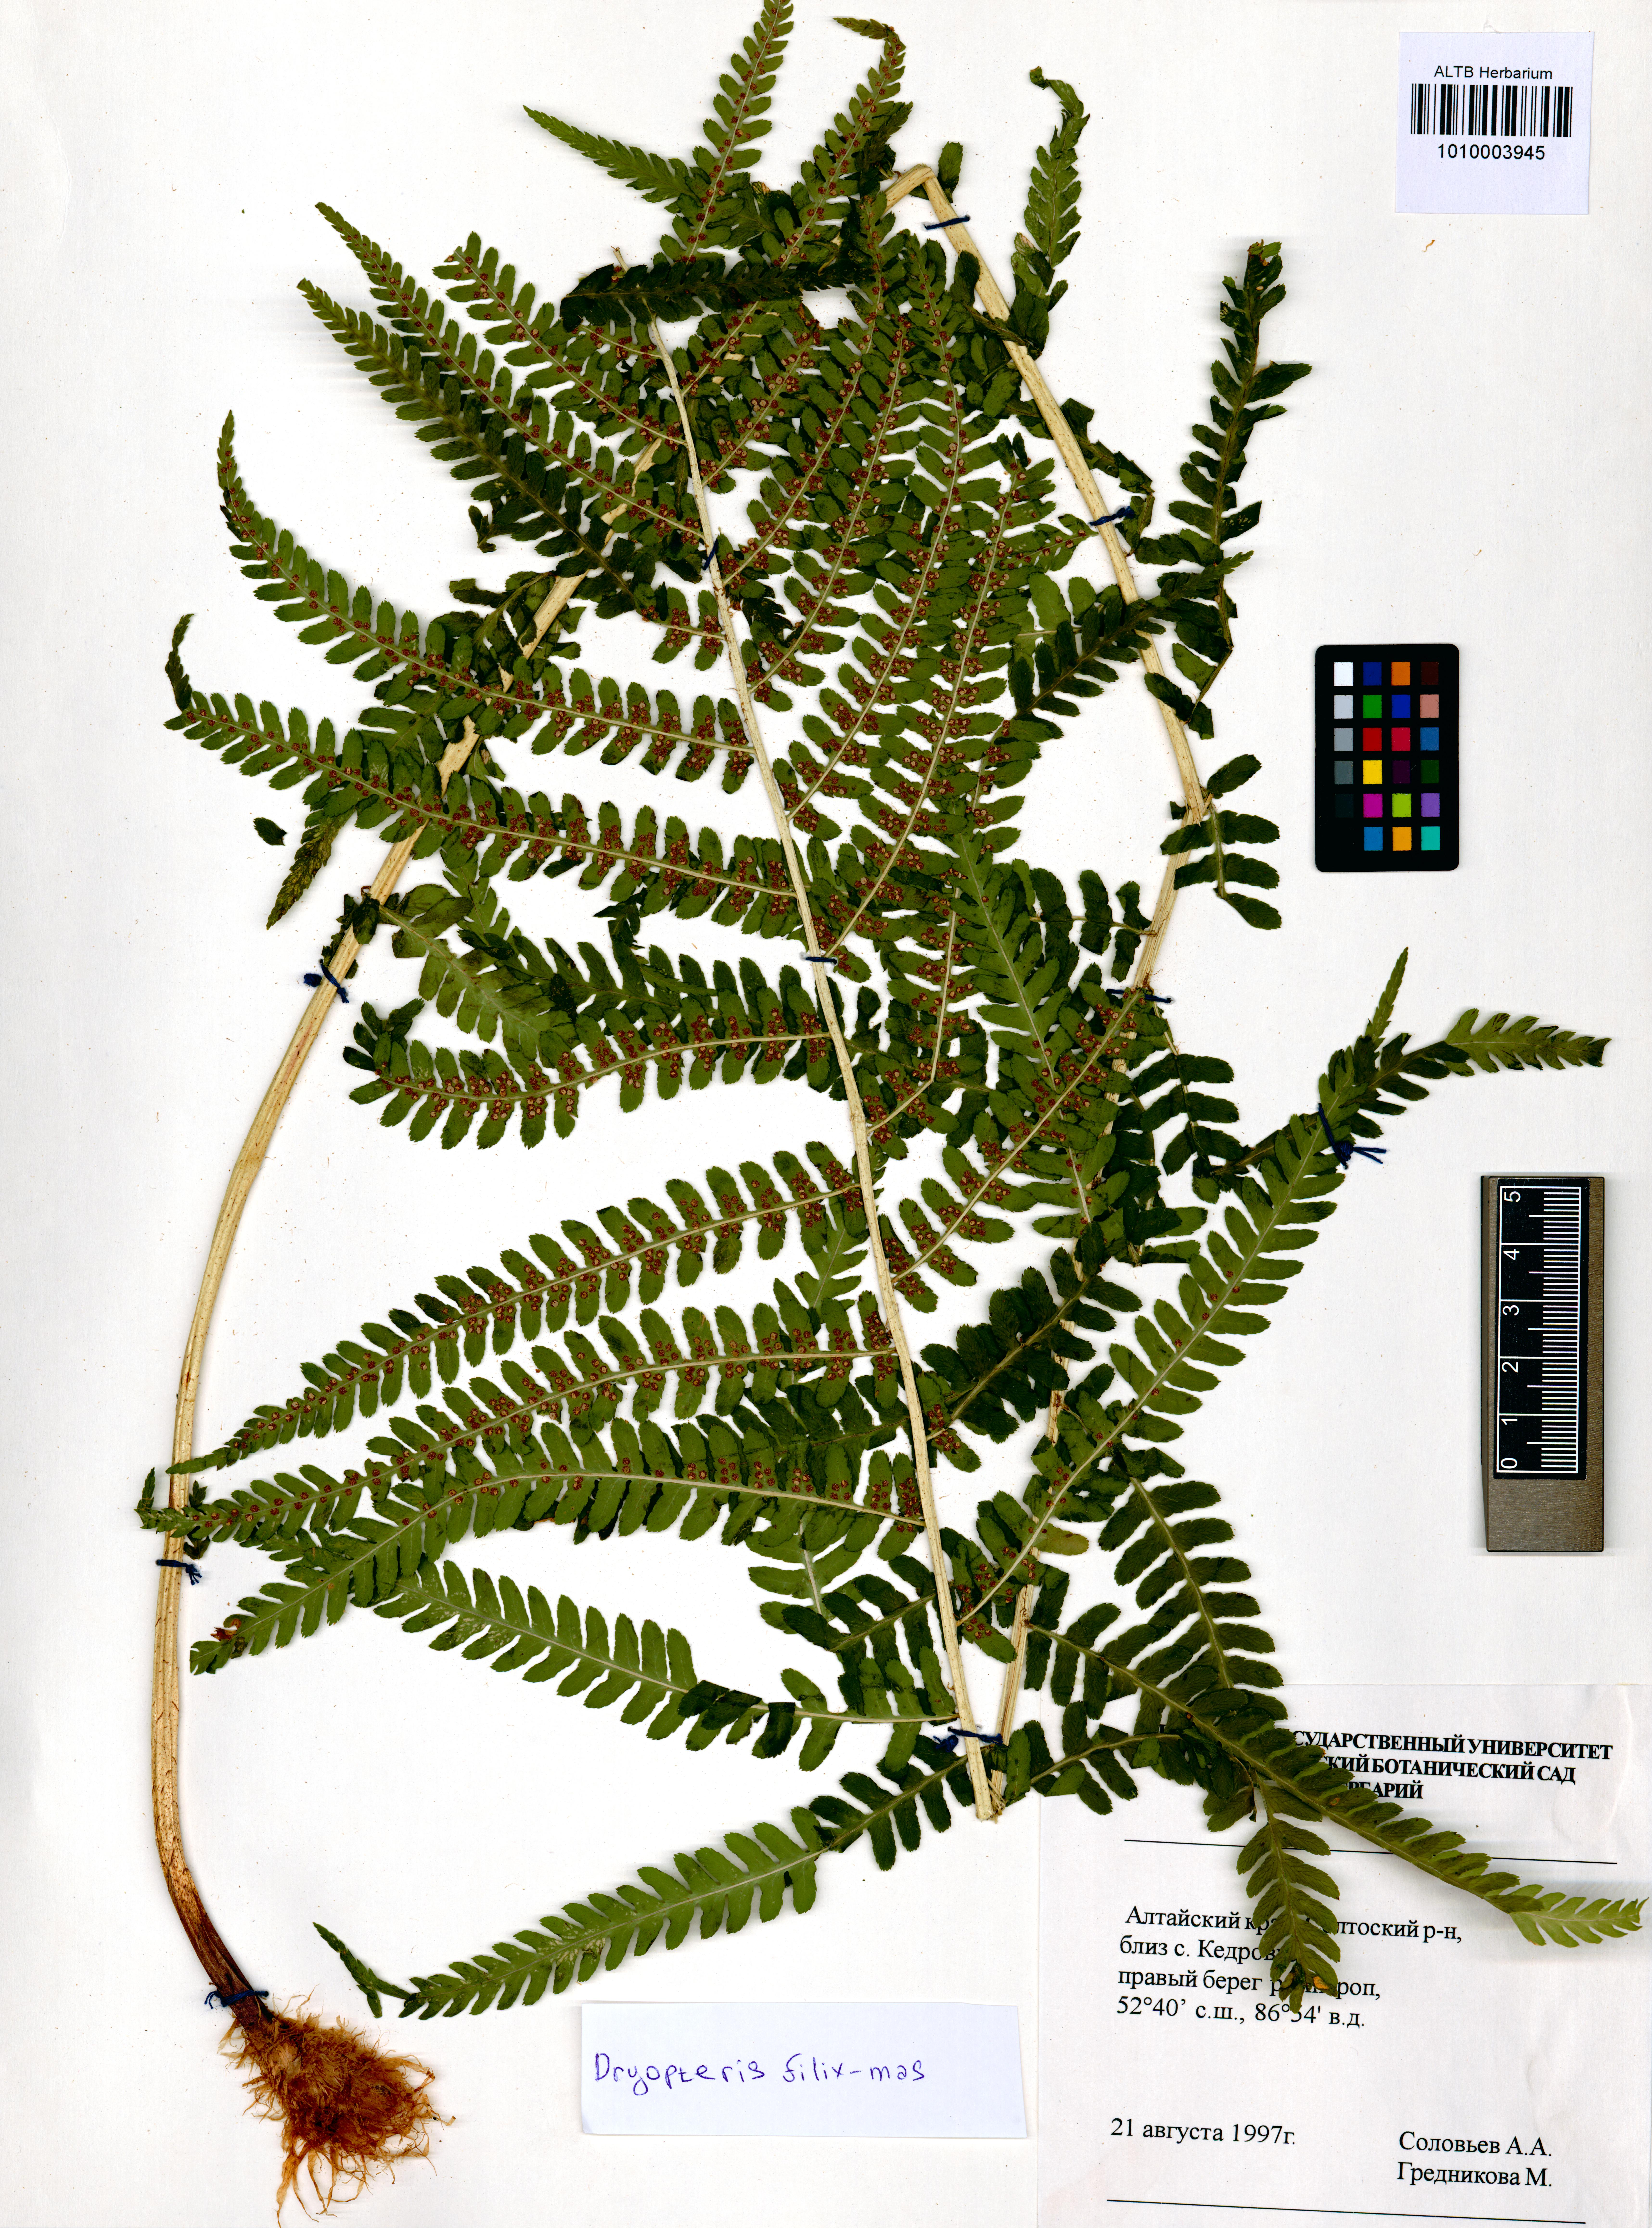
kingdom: Plantae
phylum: Tracheophyta
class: Polypodiopsida
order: Polypodiales
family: Dryopteridaceae
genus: Dryopteris
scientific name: Dryopteris filix-mas
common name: Male fern
